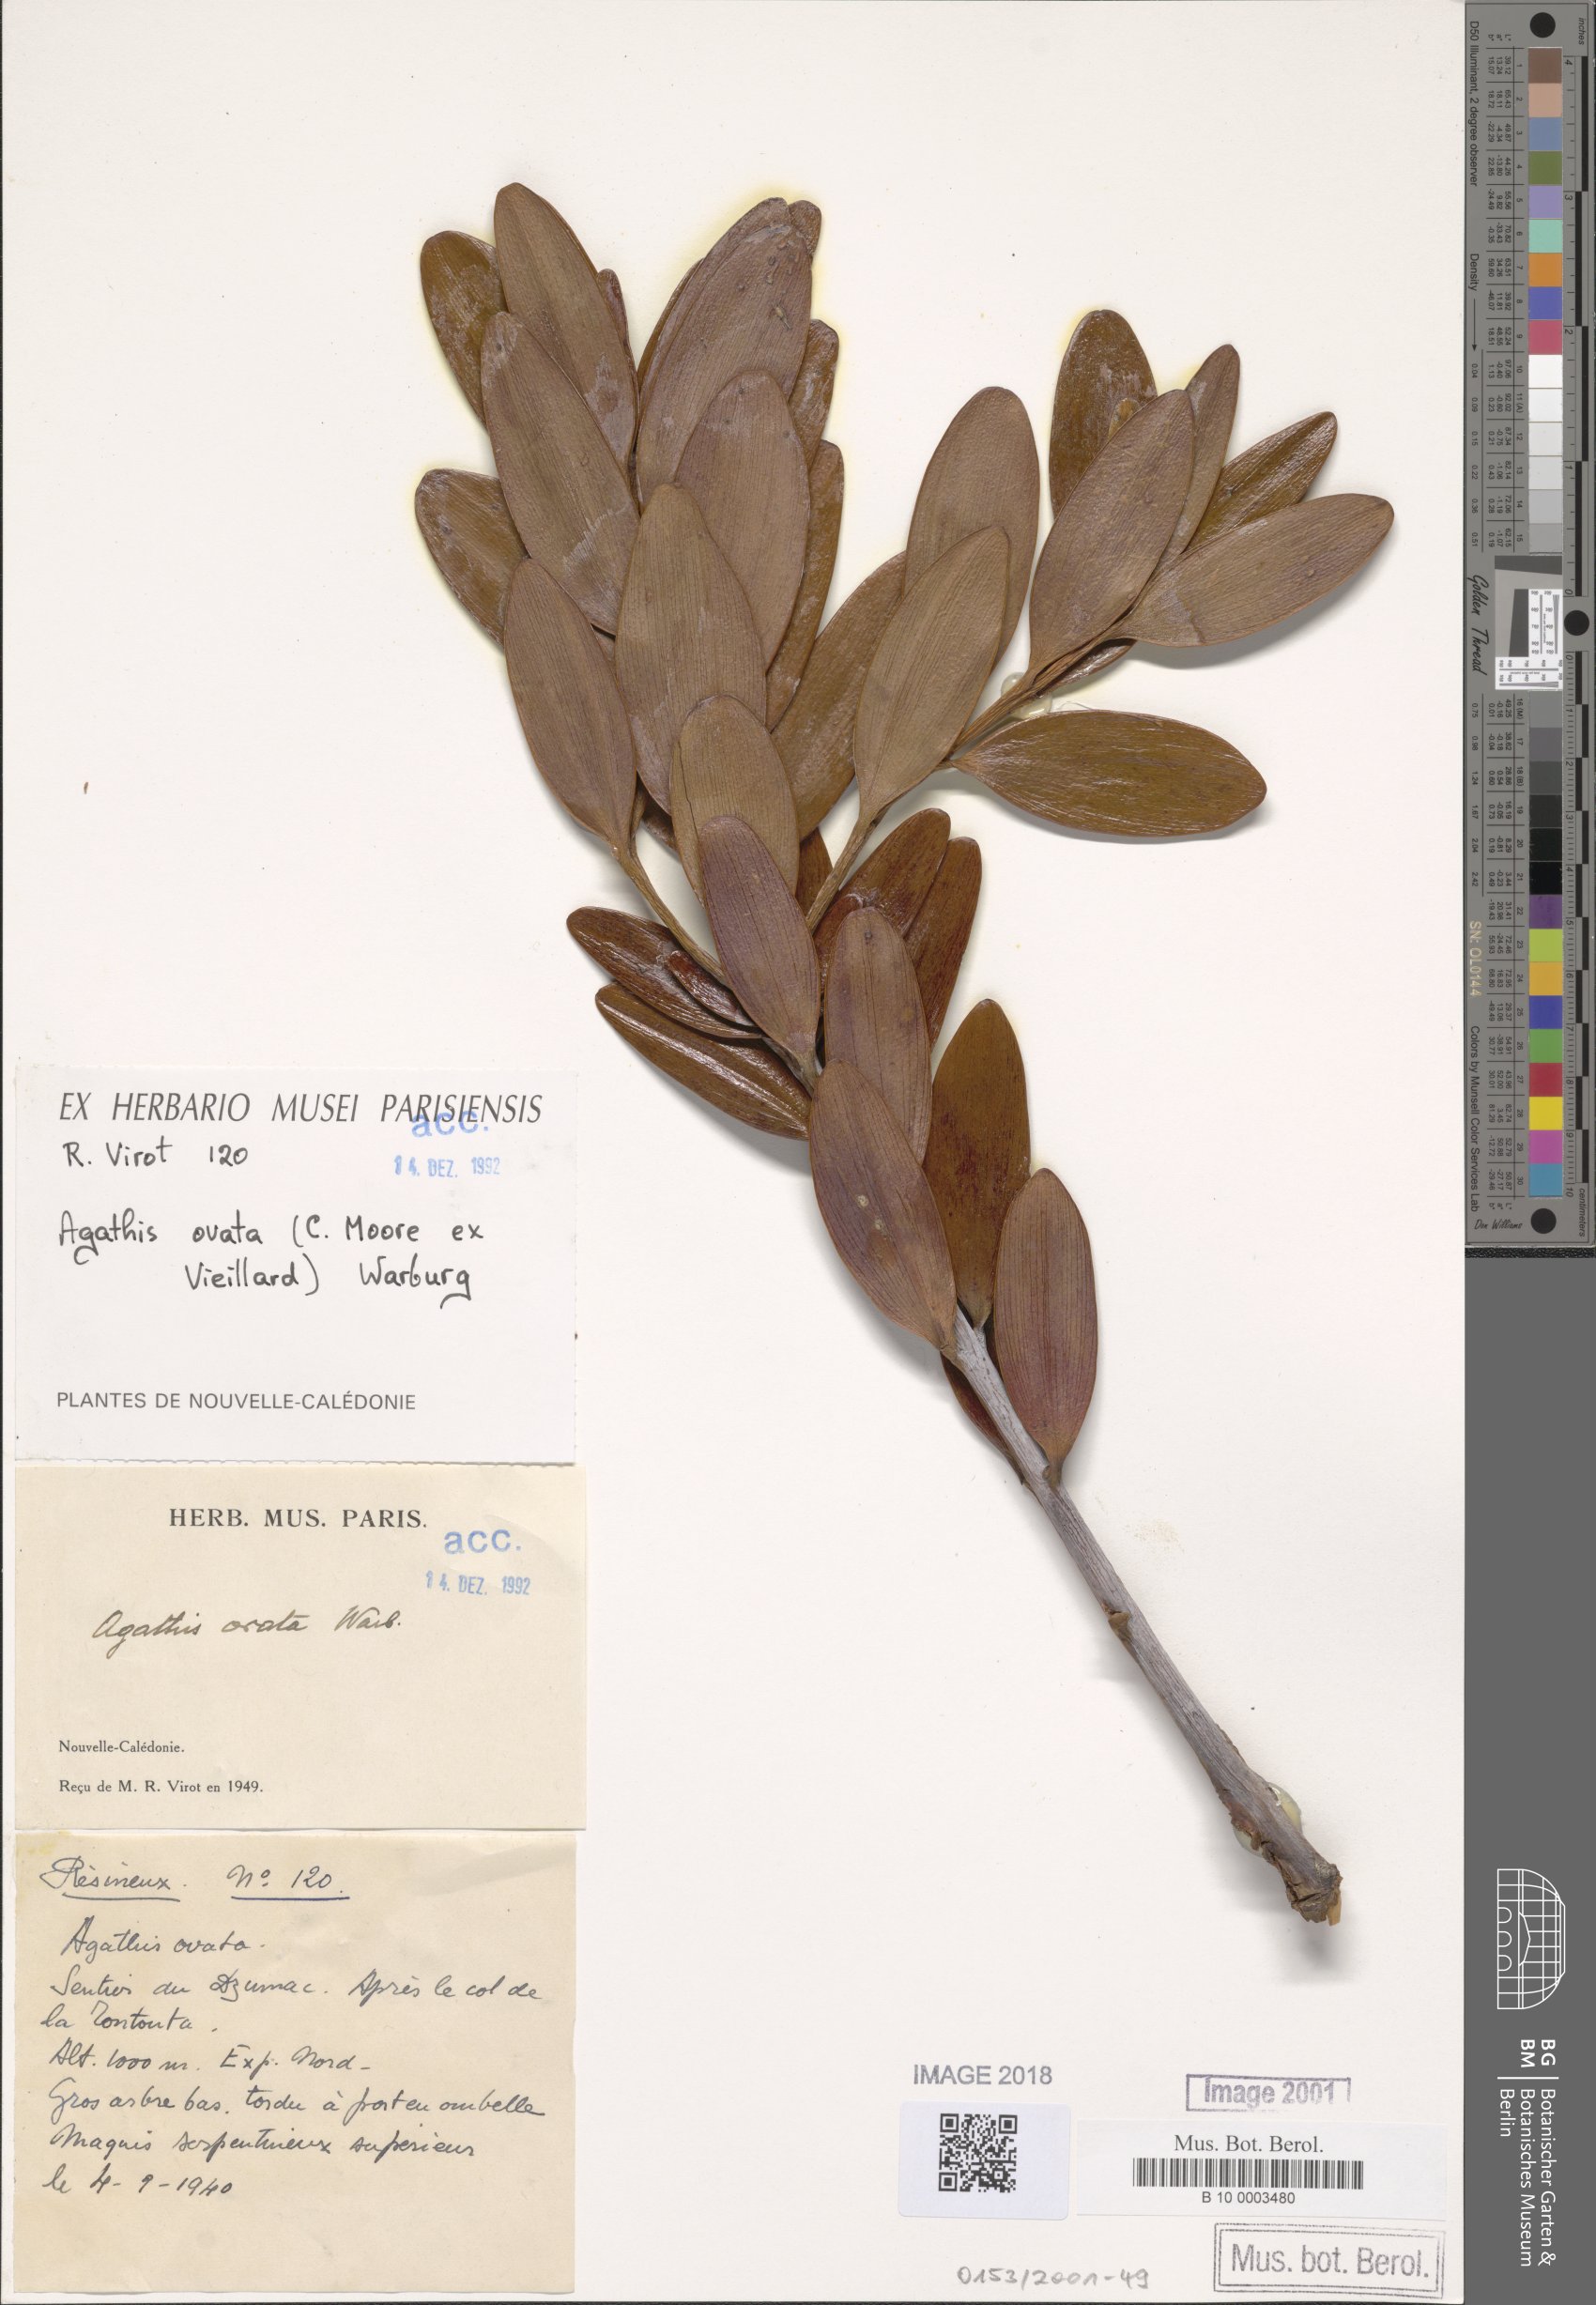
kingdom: Plantae
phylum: Tracheophyta
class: Pinopsida
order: Pinales
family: Araucariaceae
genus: Agathis
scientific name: Agathis ovata
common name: Scrub kauri
